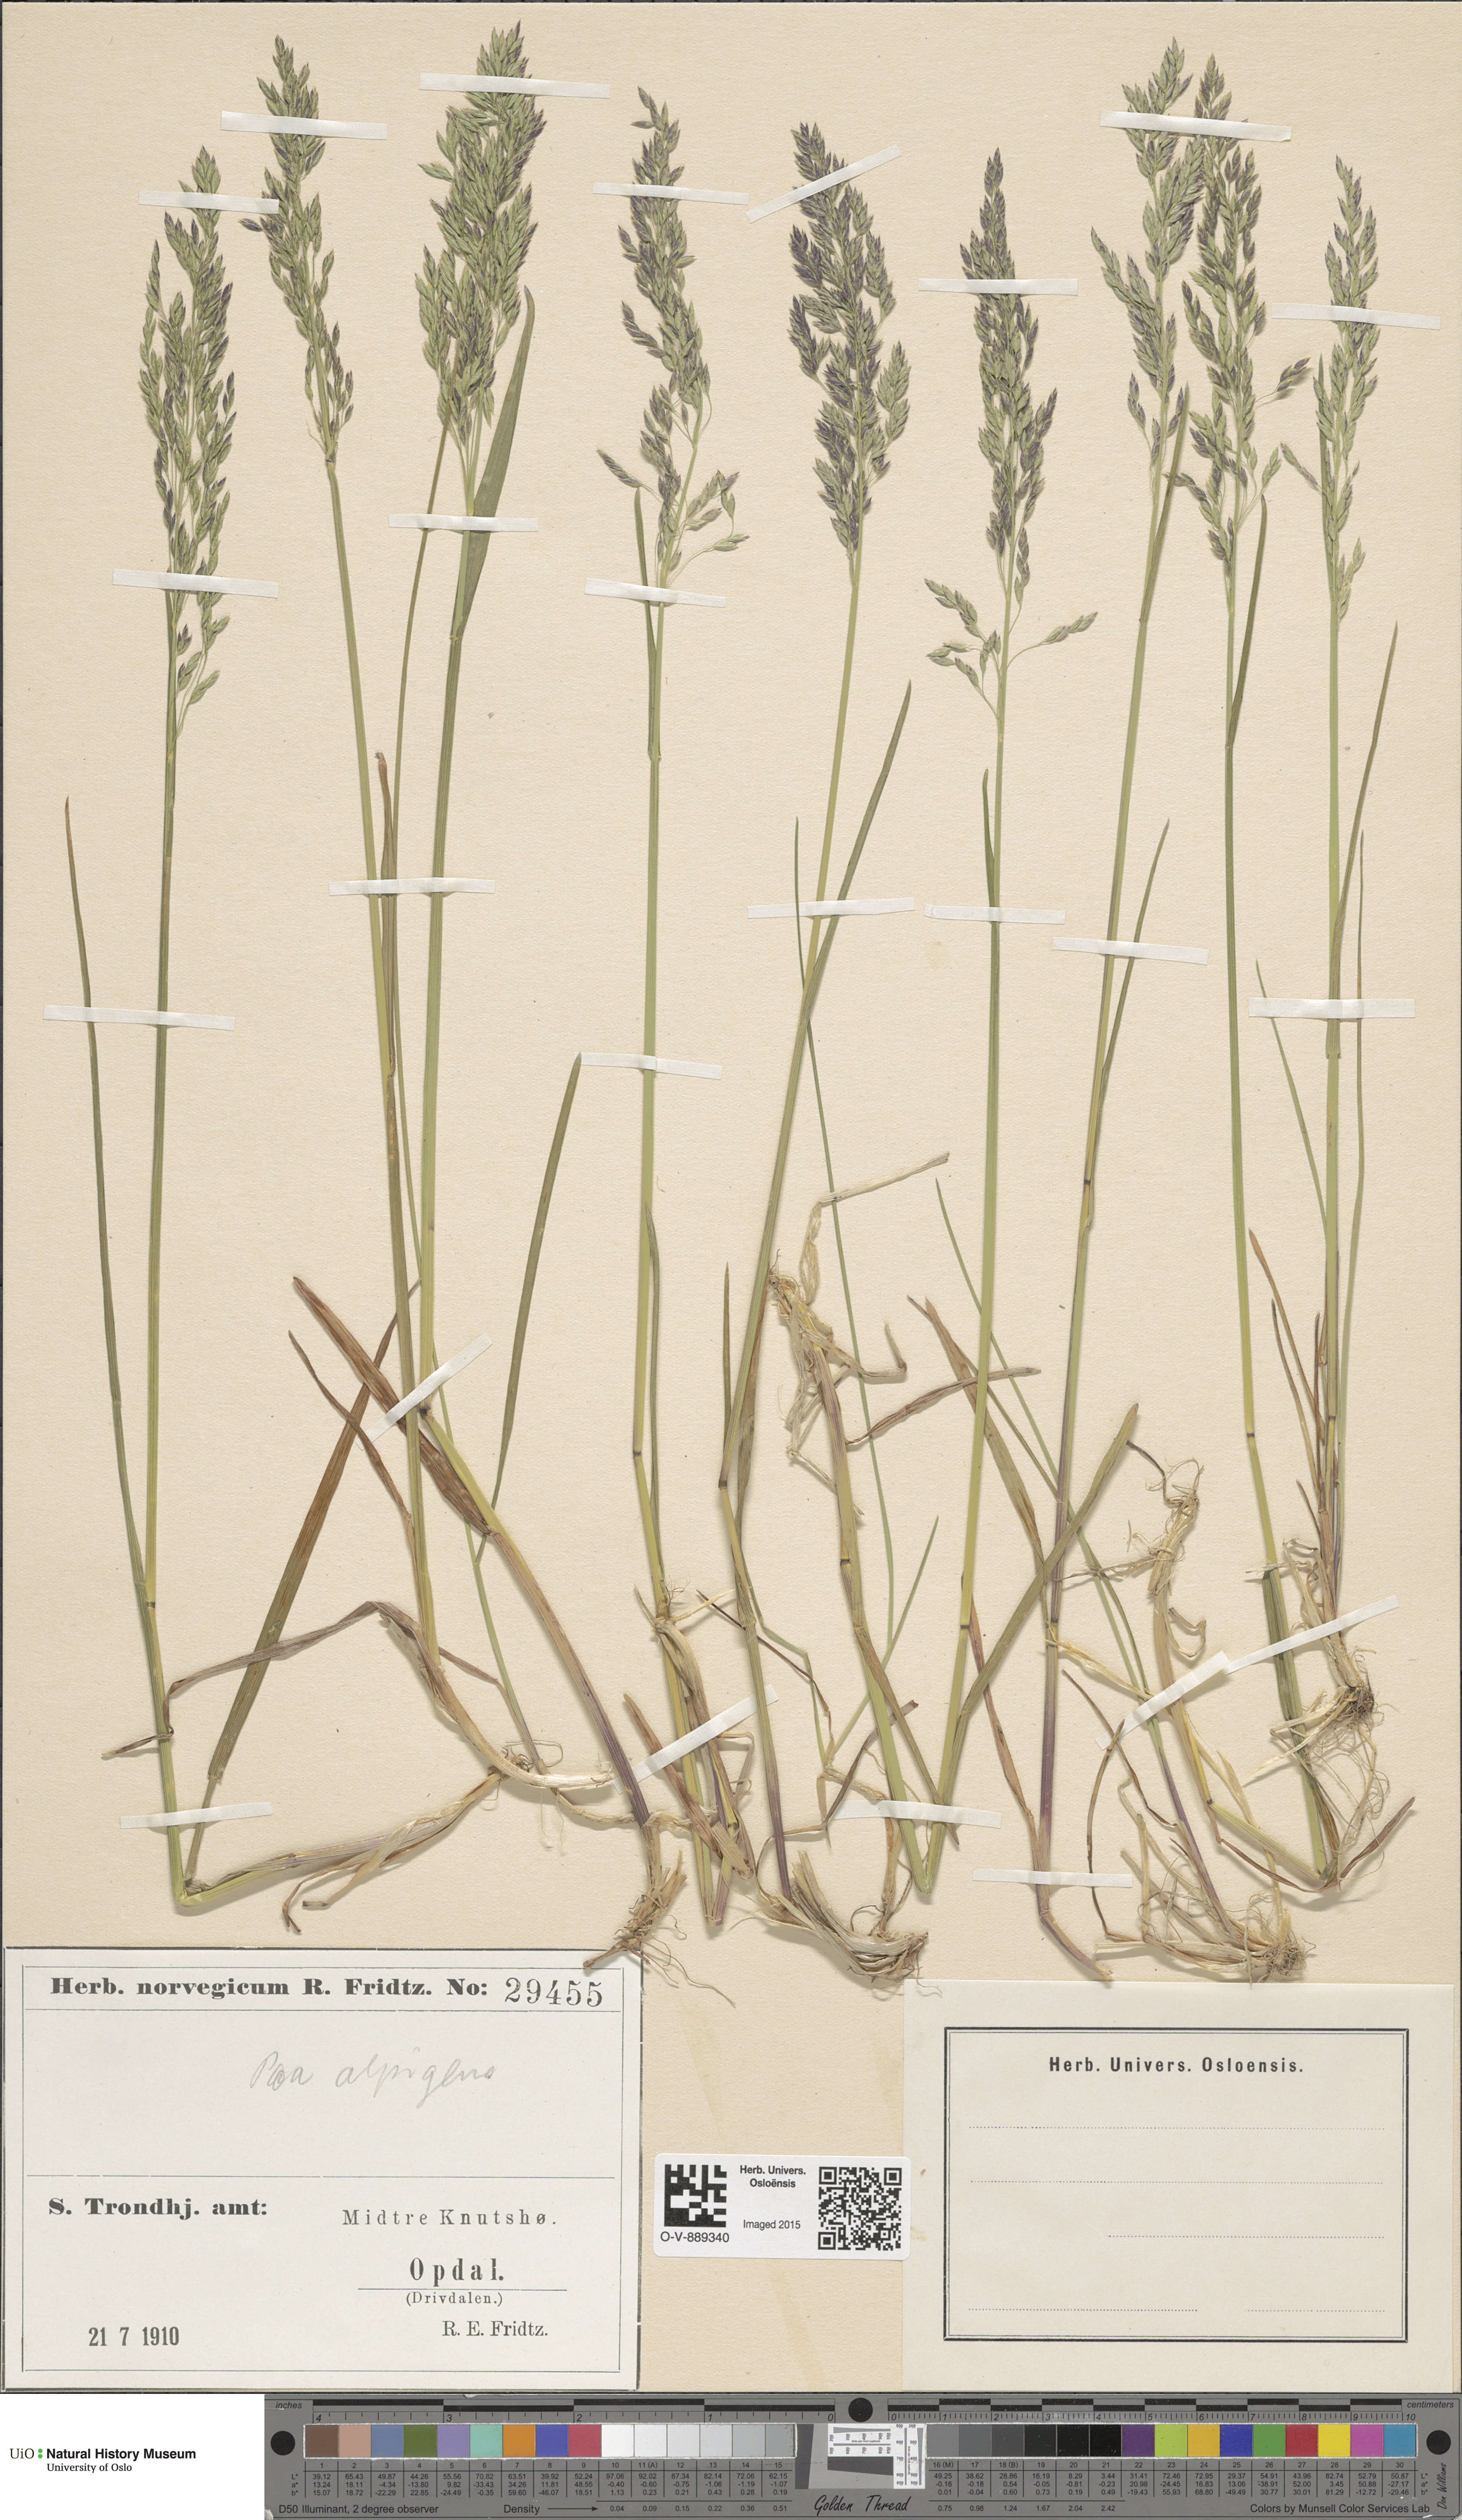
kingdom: Plantae
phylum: Tracheophyta
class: Liliopsida
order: Poales
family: Poaceae
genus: Poa
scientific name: Poa alpigena
